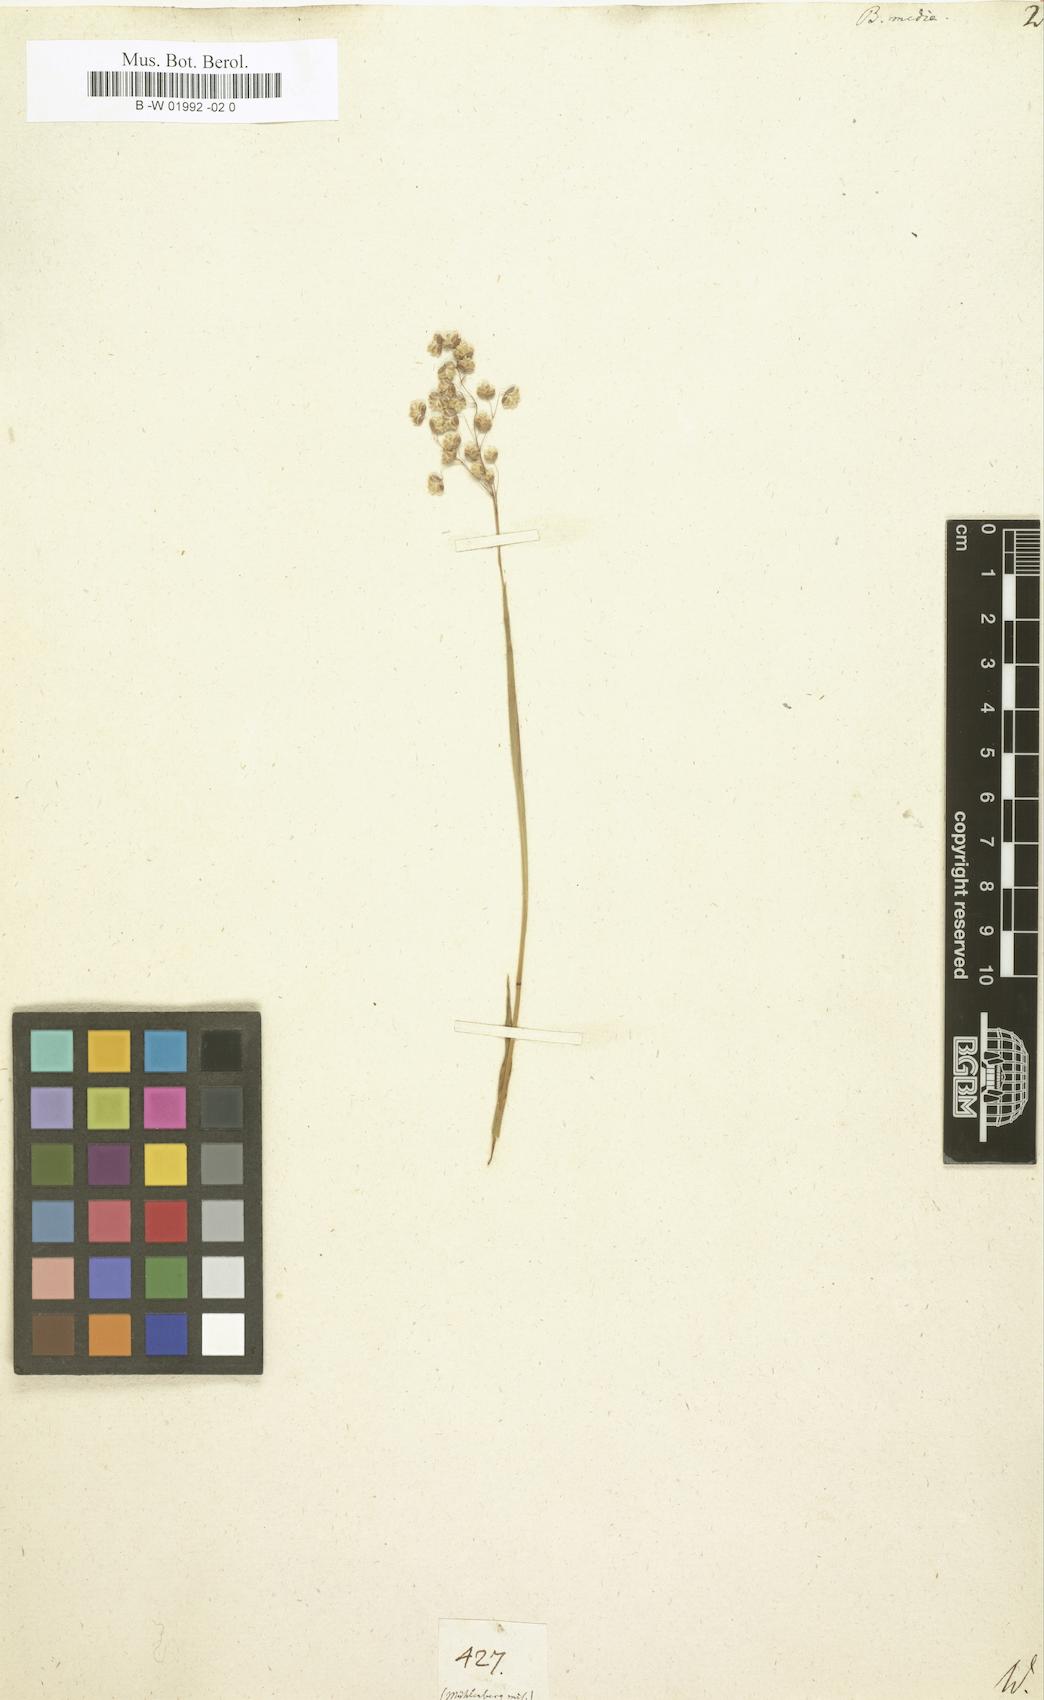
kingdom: Plantae
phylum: Tracheophyta
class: Liliopsida
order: Poales
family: Poaceae
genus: Briza
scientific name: Briza media
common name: Quaking grass
